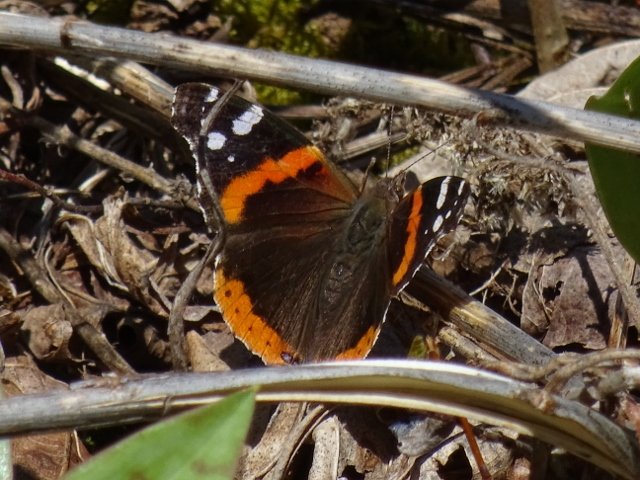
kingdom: Animalia
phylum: Arthropoda
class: Insecta
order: Lepidoptera
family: Nymphalidae
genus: Vanessa
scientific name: Vanessa atalanta
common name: Red Admiral
